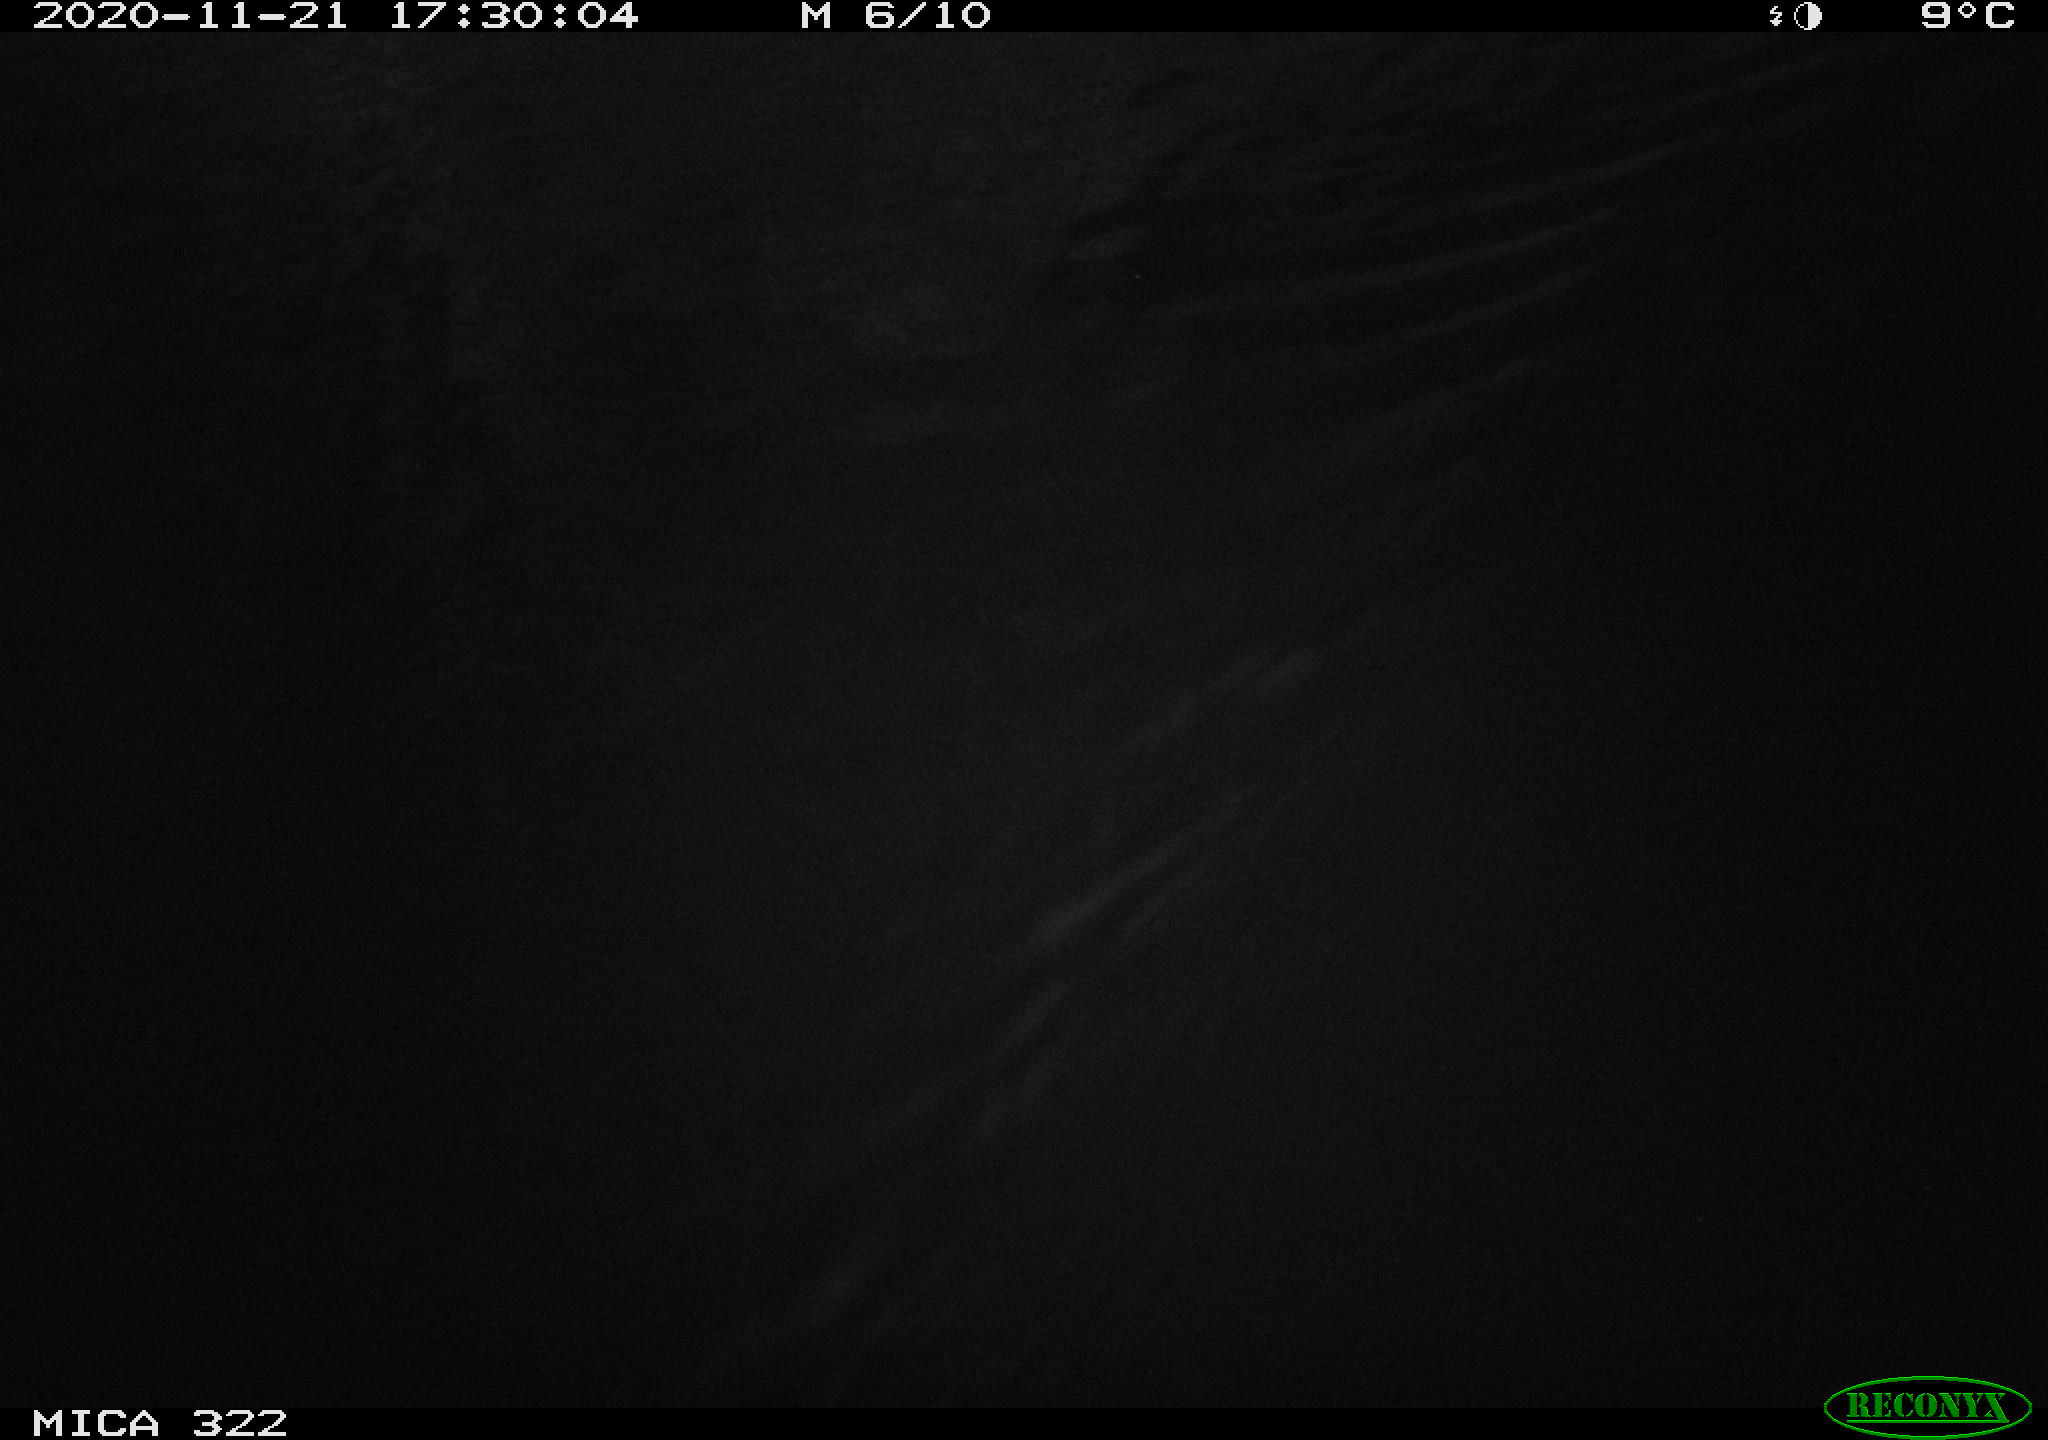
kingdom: Animalia
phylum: Chordata
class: Mammalia
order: Rodentia
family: Muridae
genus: Rattus
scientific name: Rattus norvegicus
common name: Brown rat
